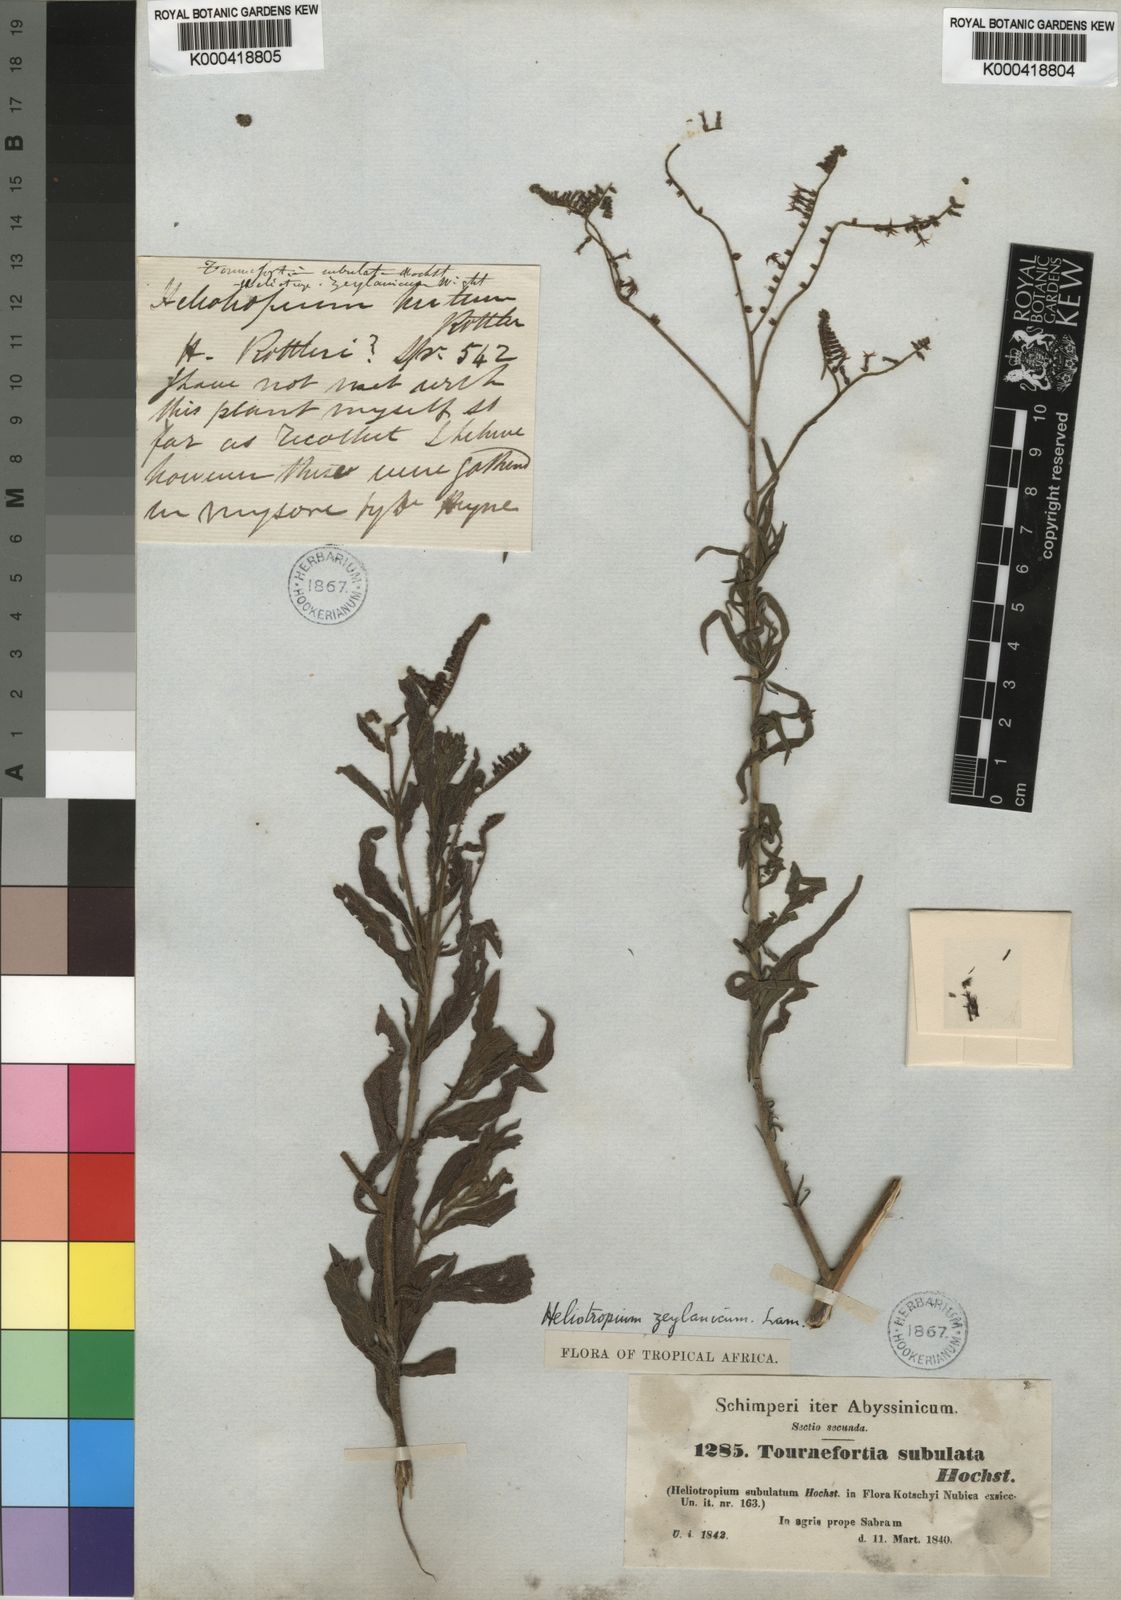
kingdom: Plantae
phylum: Tracheophyta
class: Magnoliopsida
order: Boraginales
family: Heliotropiaceae
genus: Heliotropium
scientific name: Heliotropium zeylanicum
